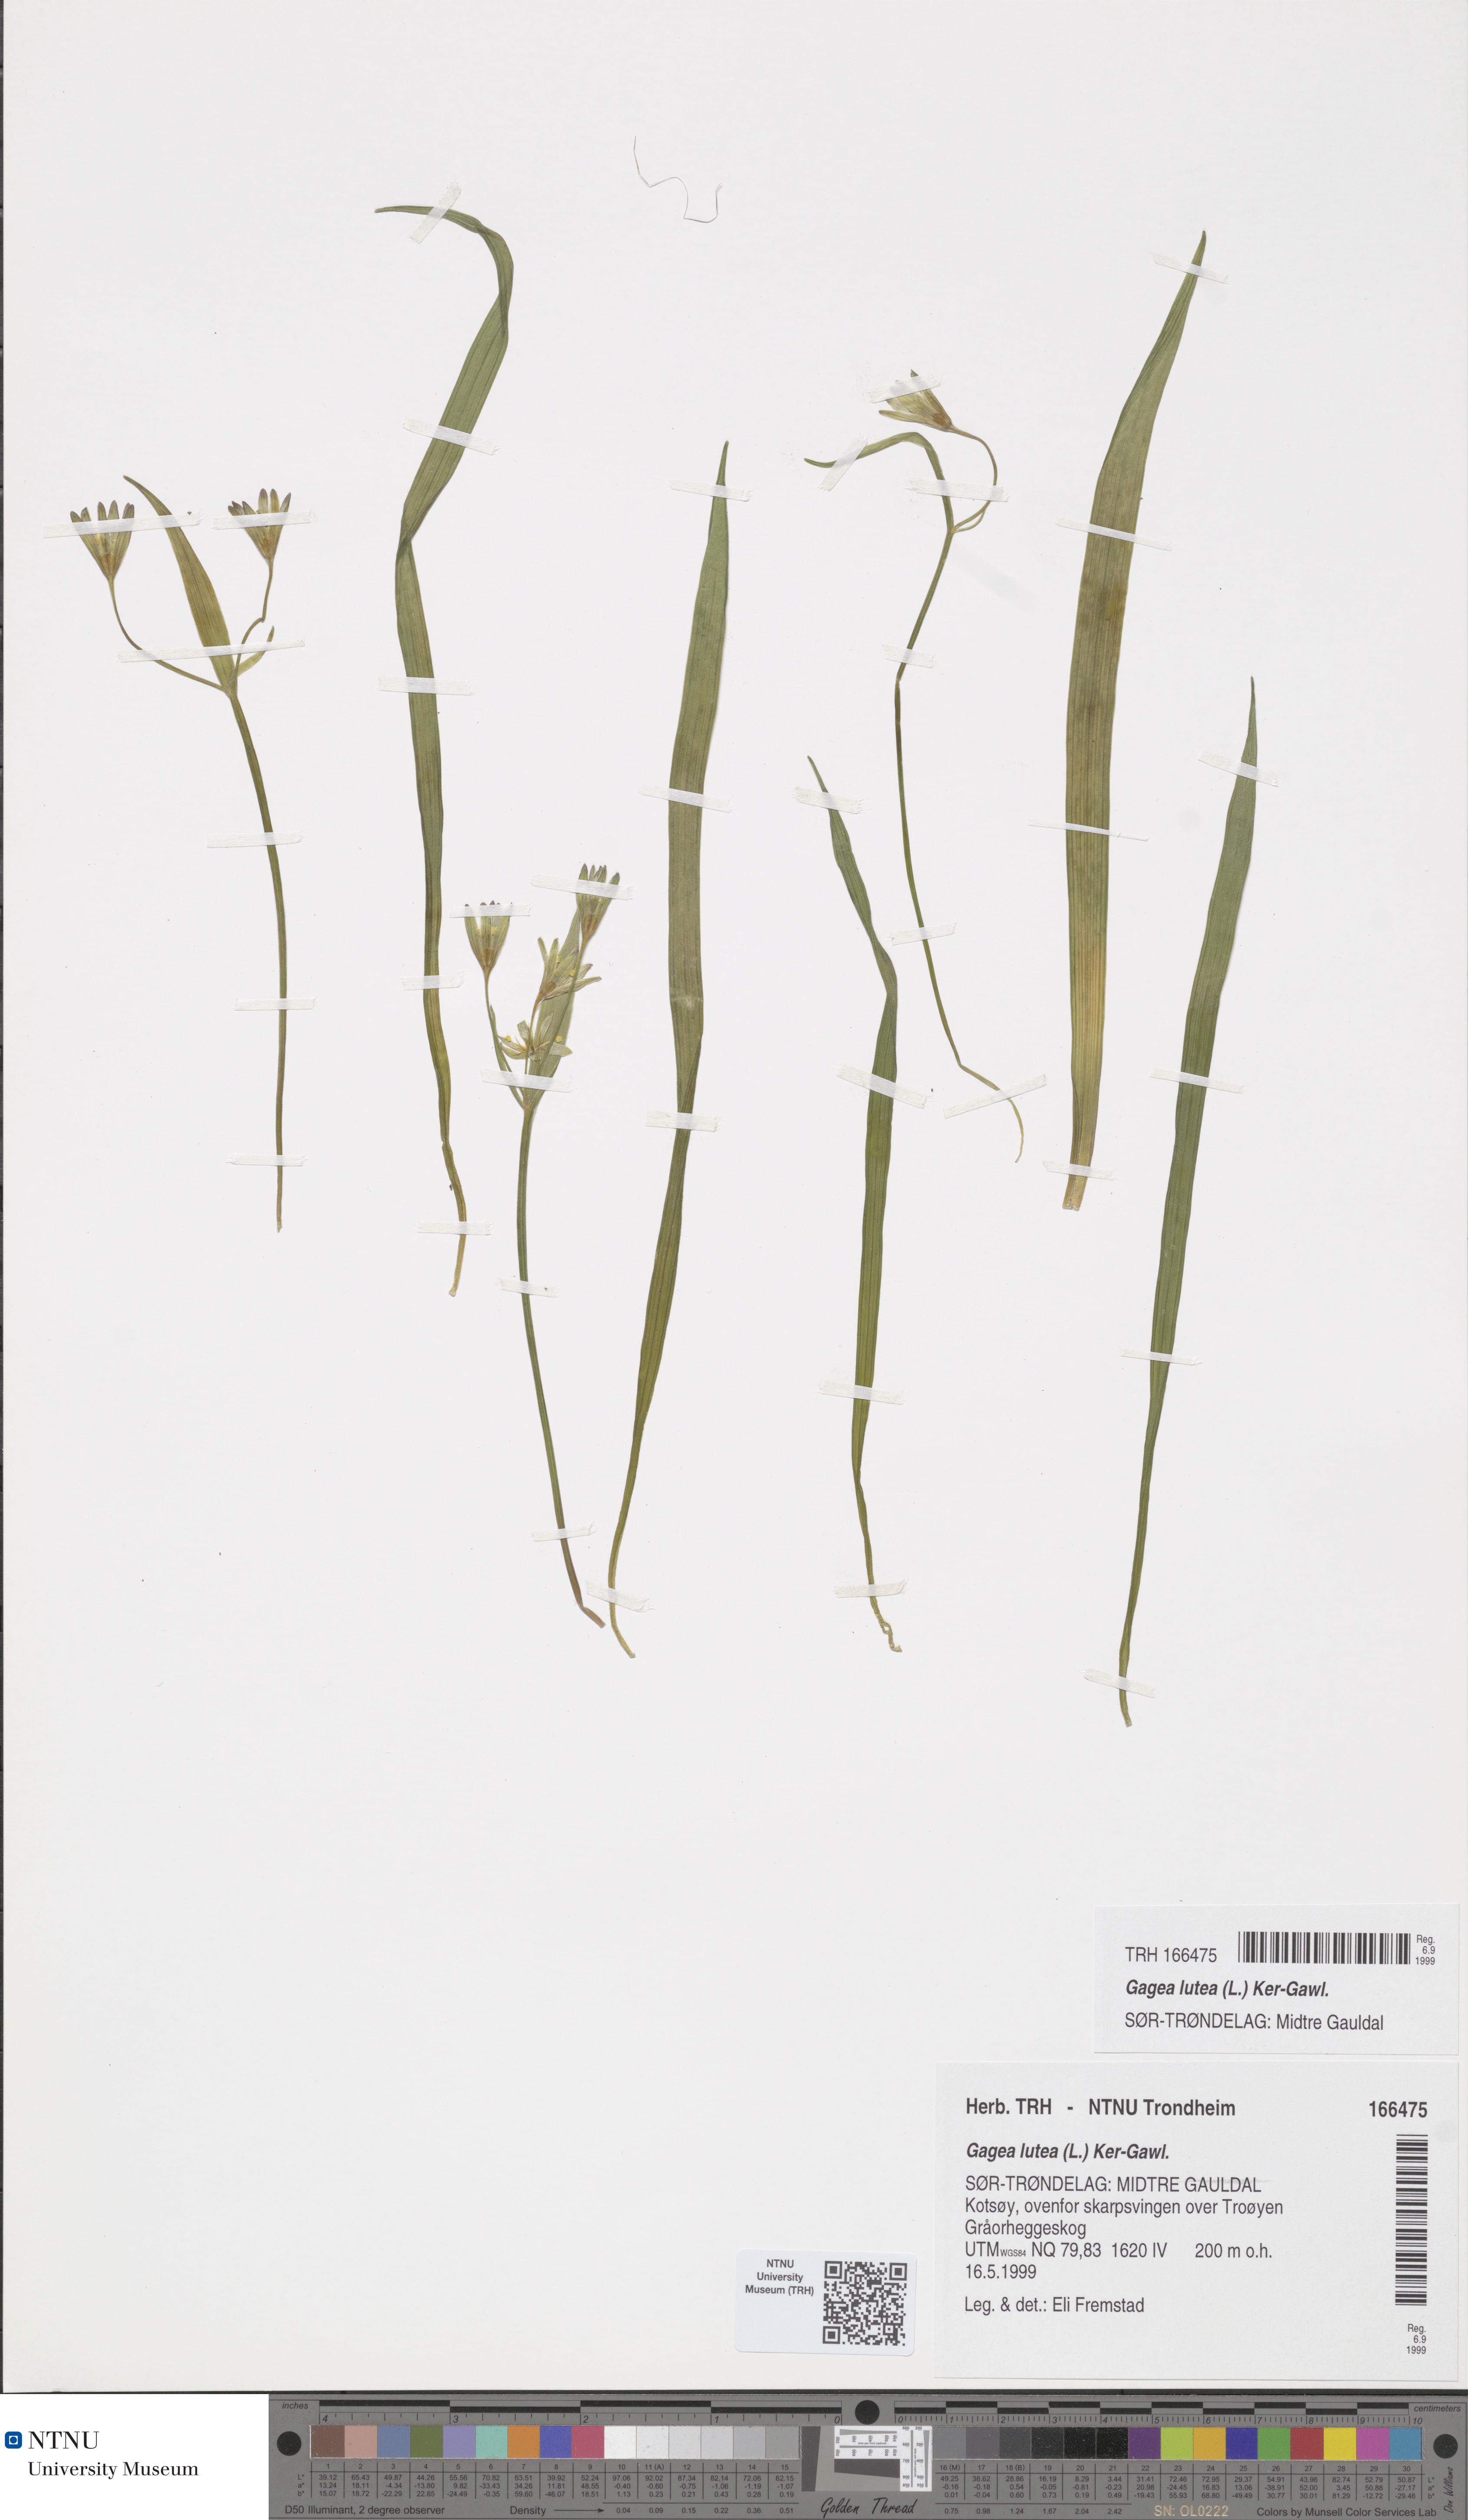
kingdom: Plantae
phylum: Tracheophyta
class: Liliopsida
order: Liliales
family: Liliaceae
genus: Gagea
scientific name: Gagea lutea
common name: Yellow star-of-bethlehem
